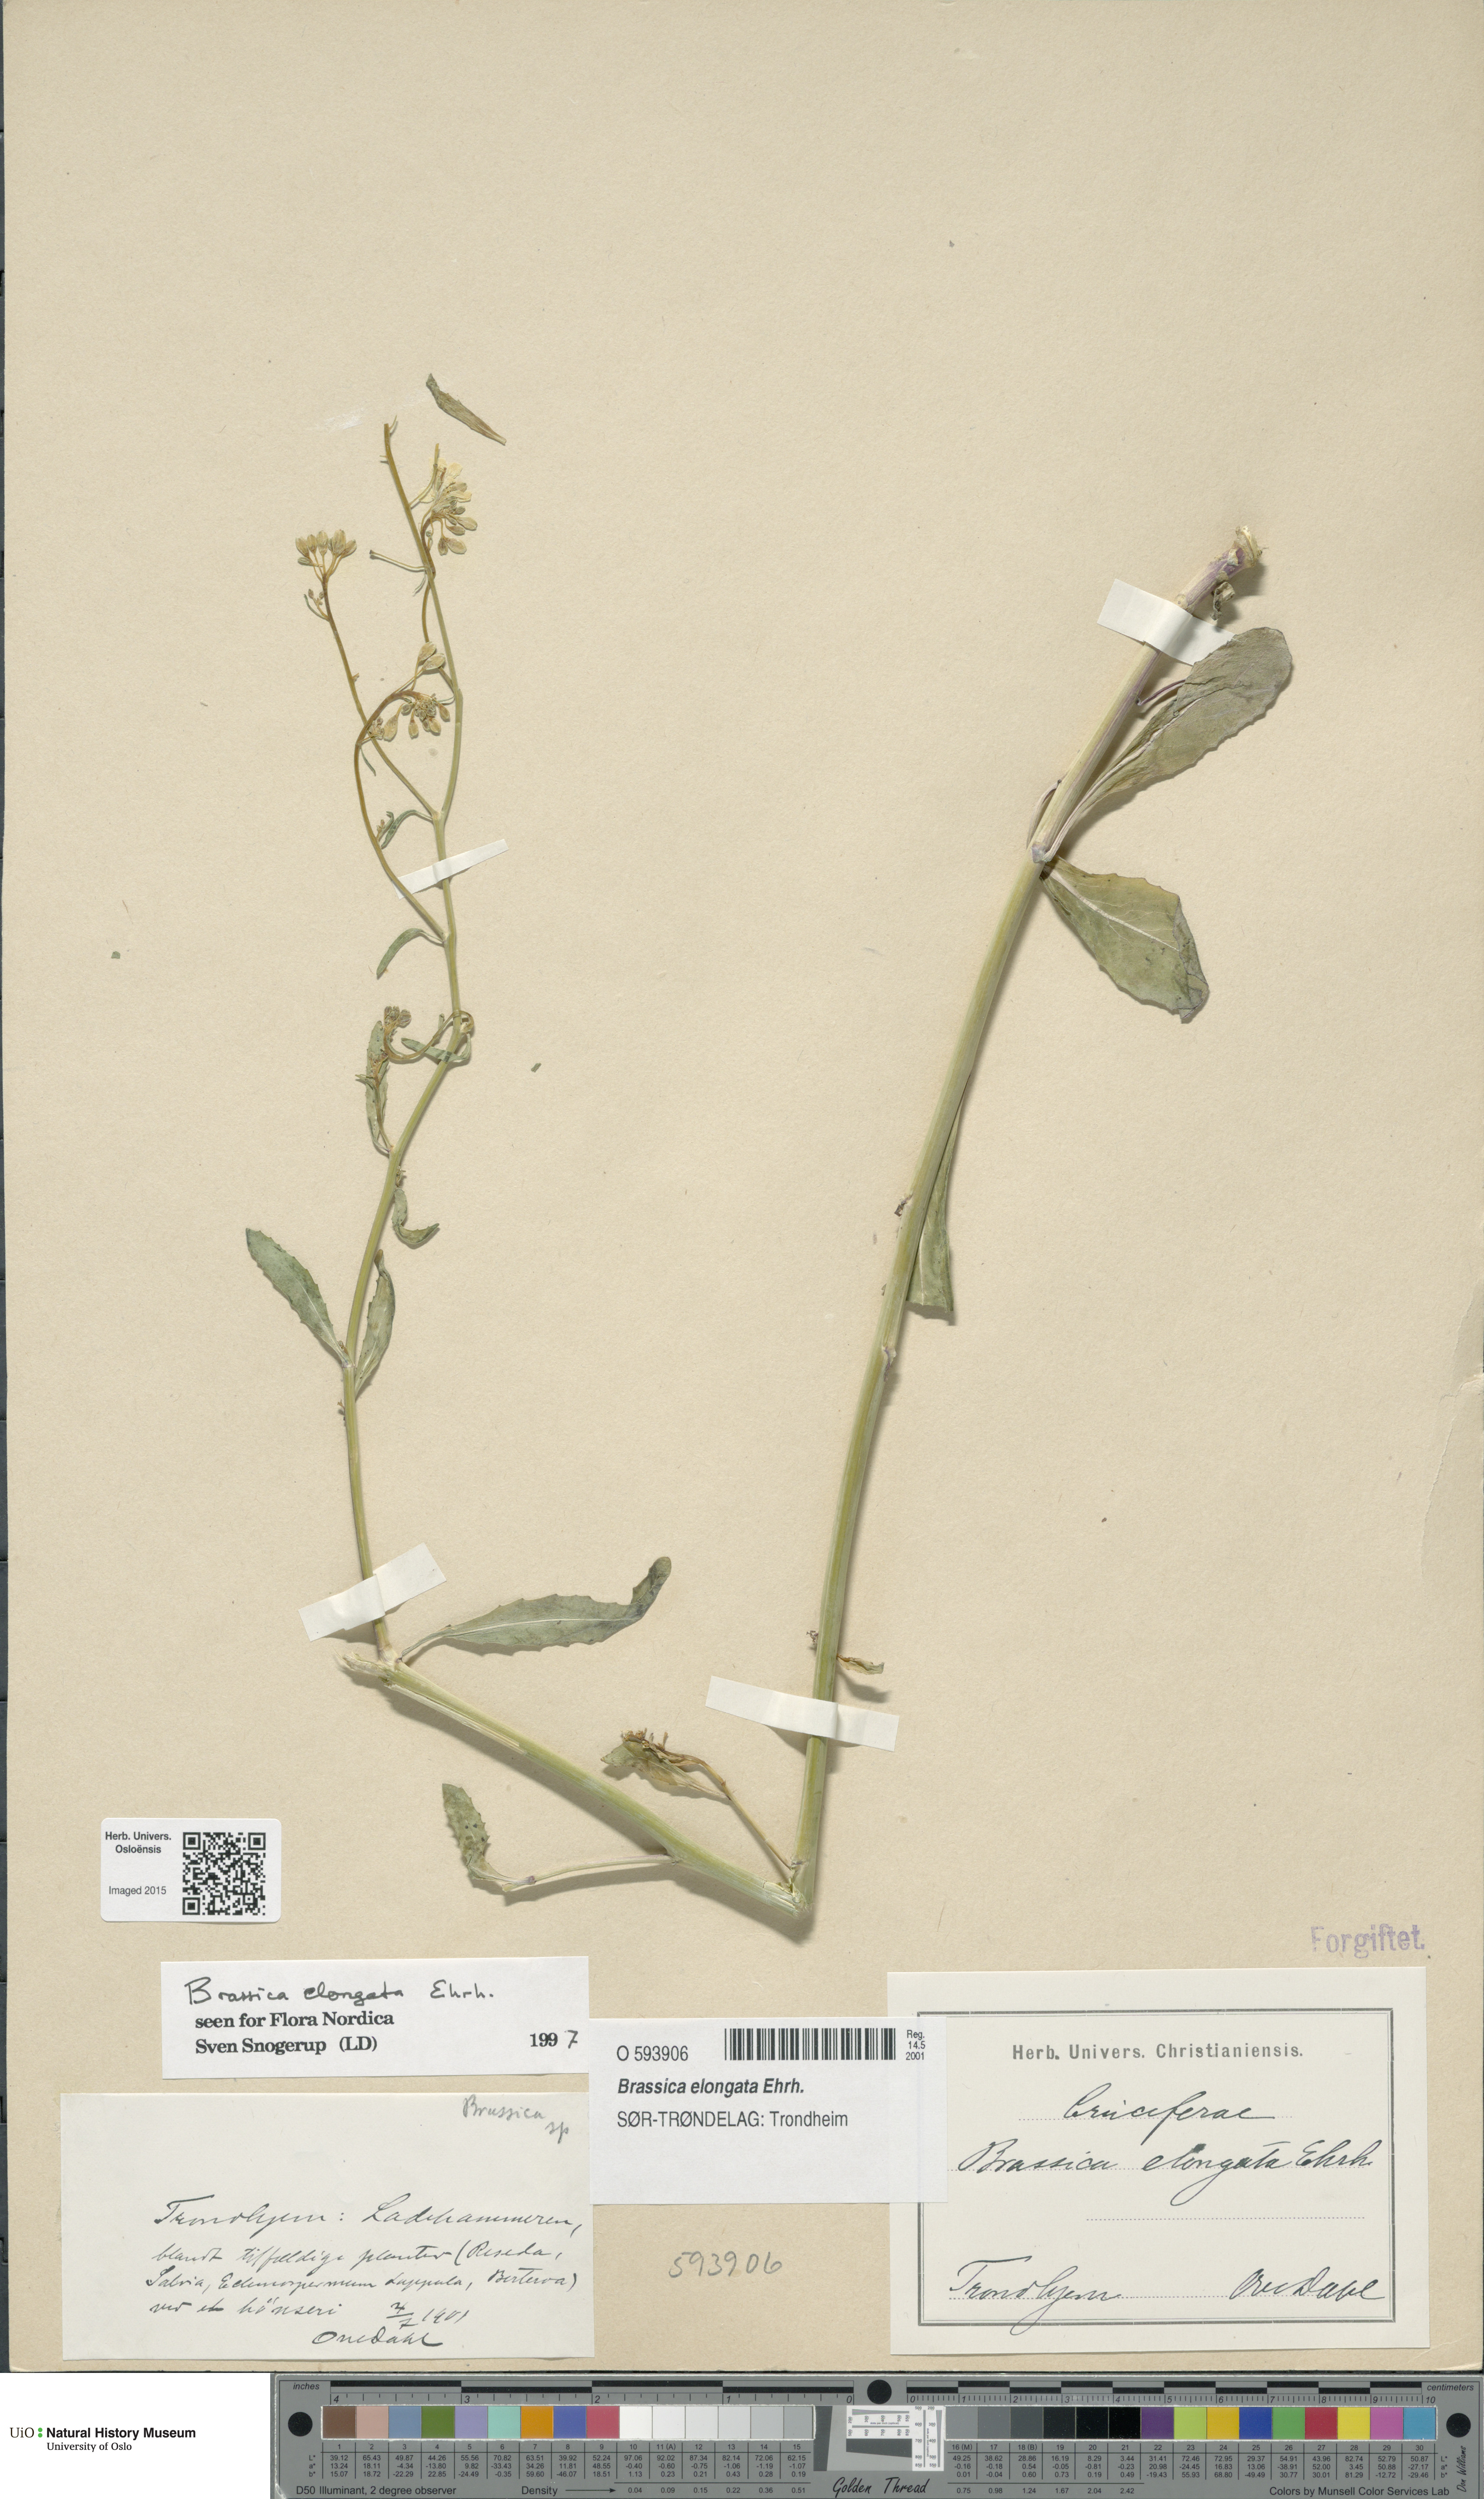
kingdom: Plantae
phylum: Tracheophyta
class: Magnoliopsida
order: Brassicales
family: Brassicaceae
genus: Brassica
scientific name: Brassica elongata
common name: Long-stalked rape
